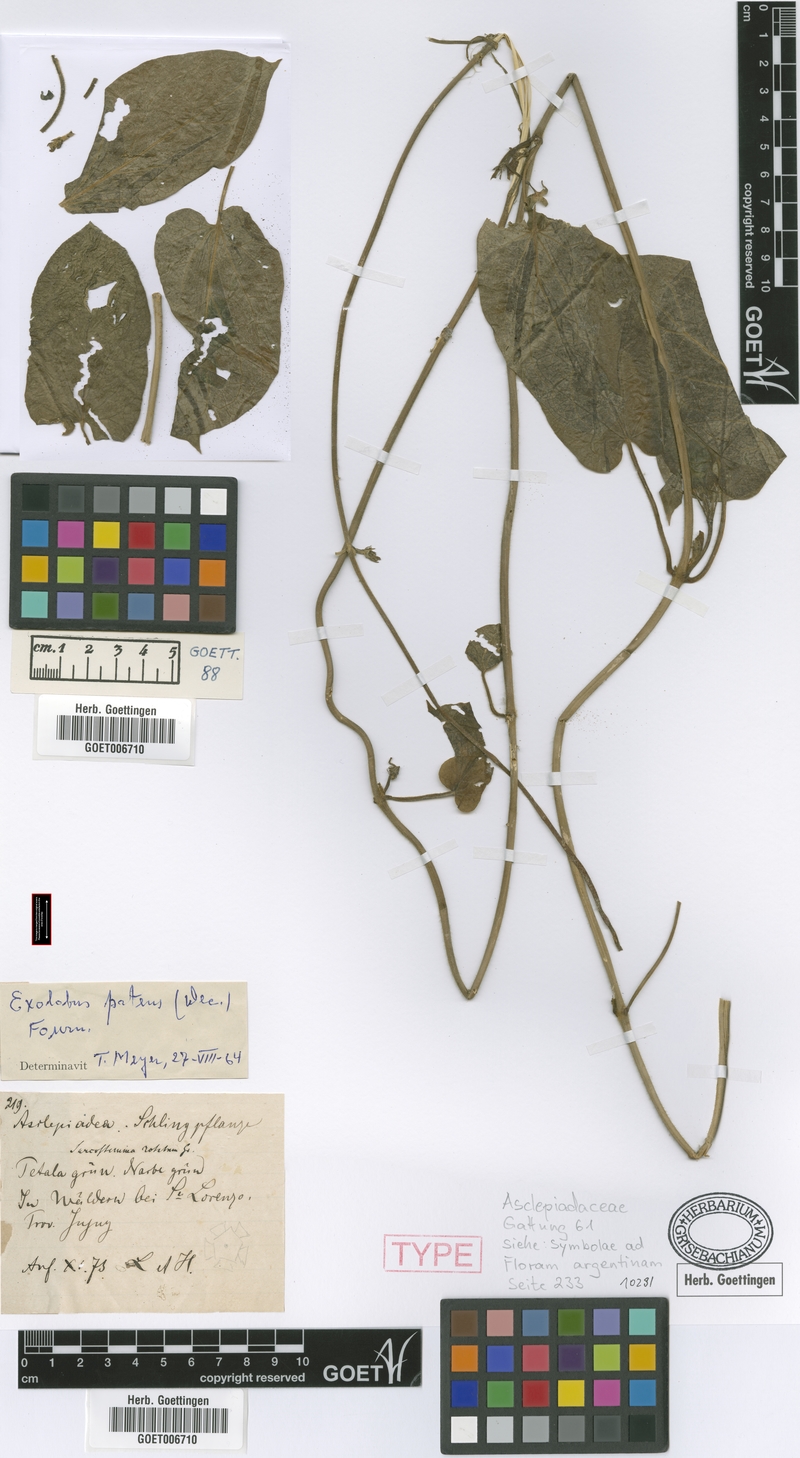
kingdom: Plantae
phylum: Tracheophyta
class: Magnoliopsida
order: Gentianales
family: Apocynaceae
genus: Gonolobus
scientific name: Gonolobus rostratus
